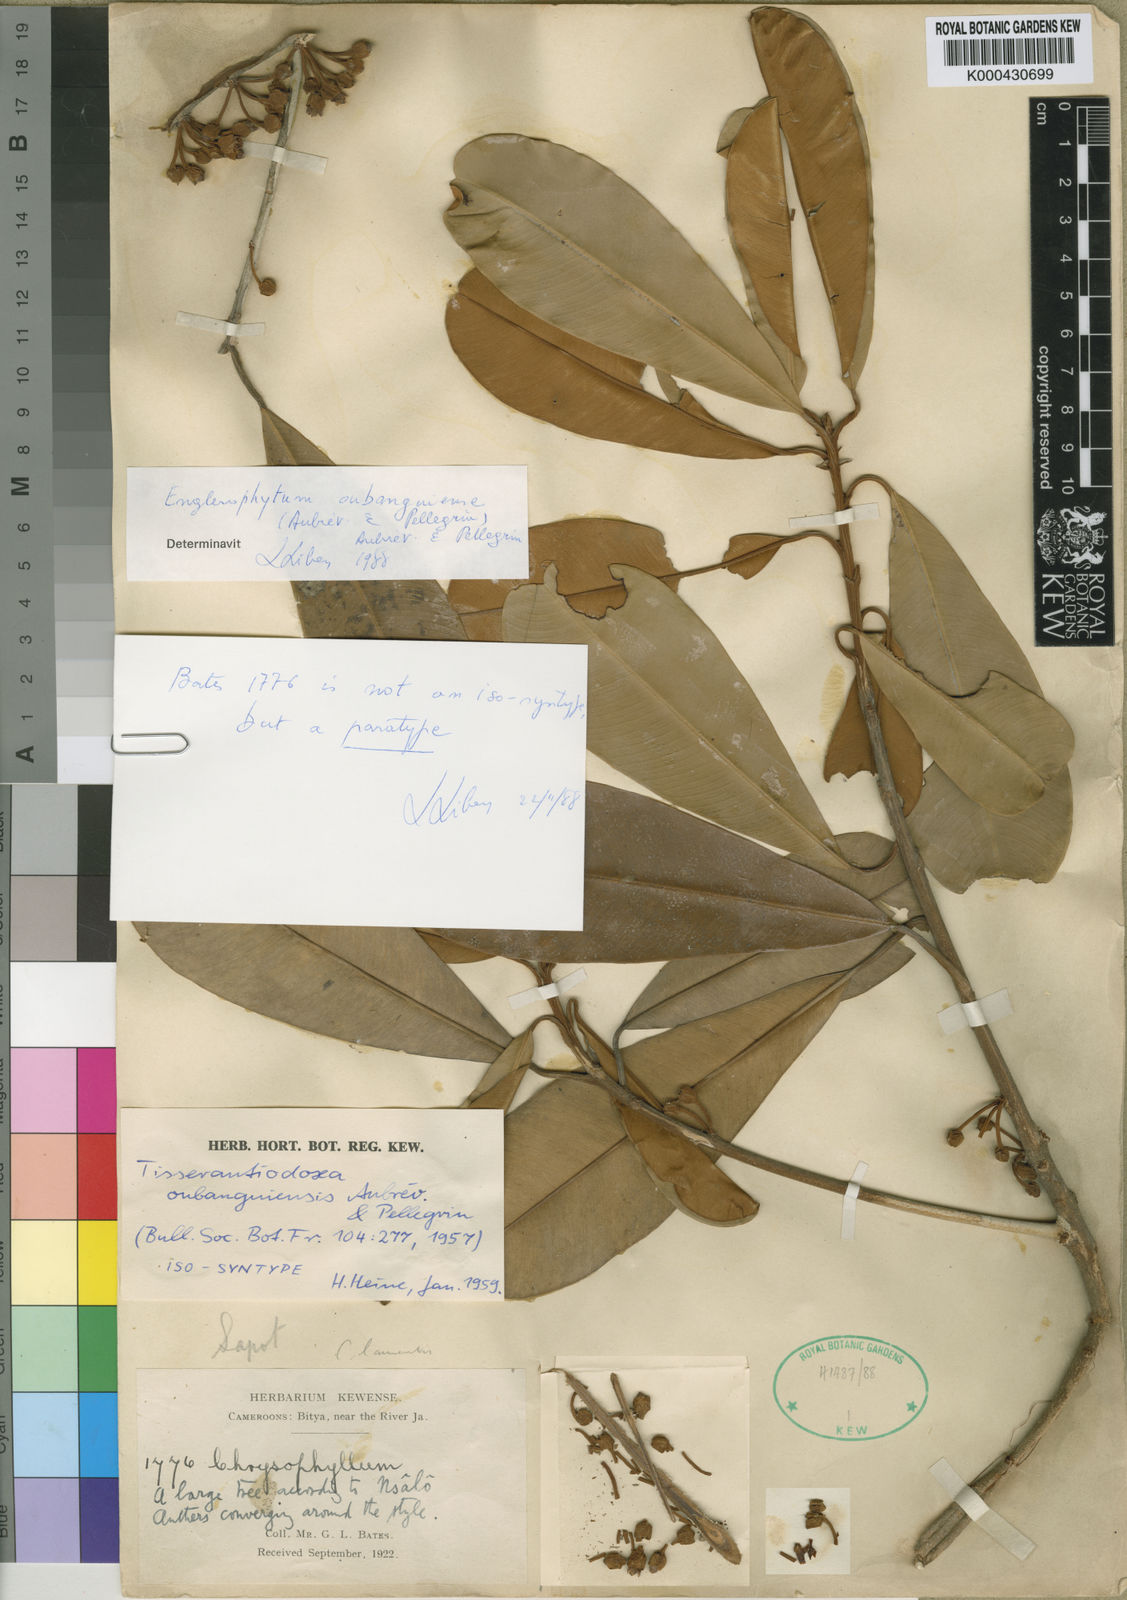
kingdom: Plantae
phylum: Tracheophyta
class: Magnoliopsida
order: Ericales
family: Sapotaceae
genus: Englerophytum
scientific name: Englerophytum
